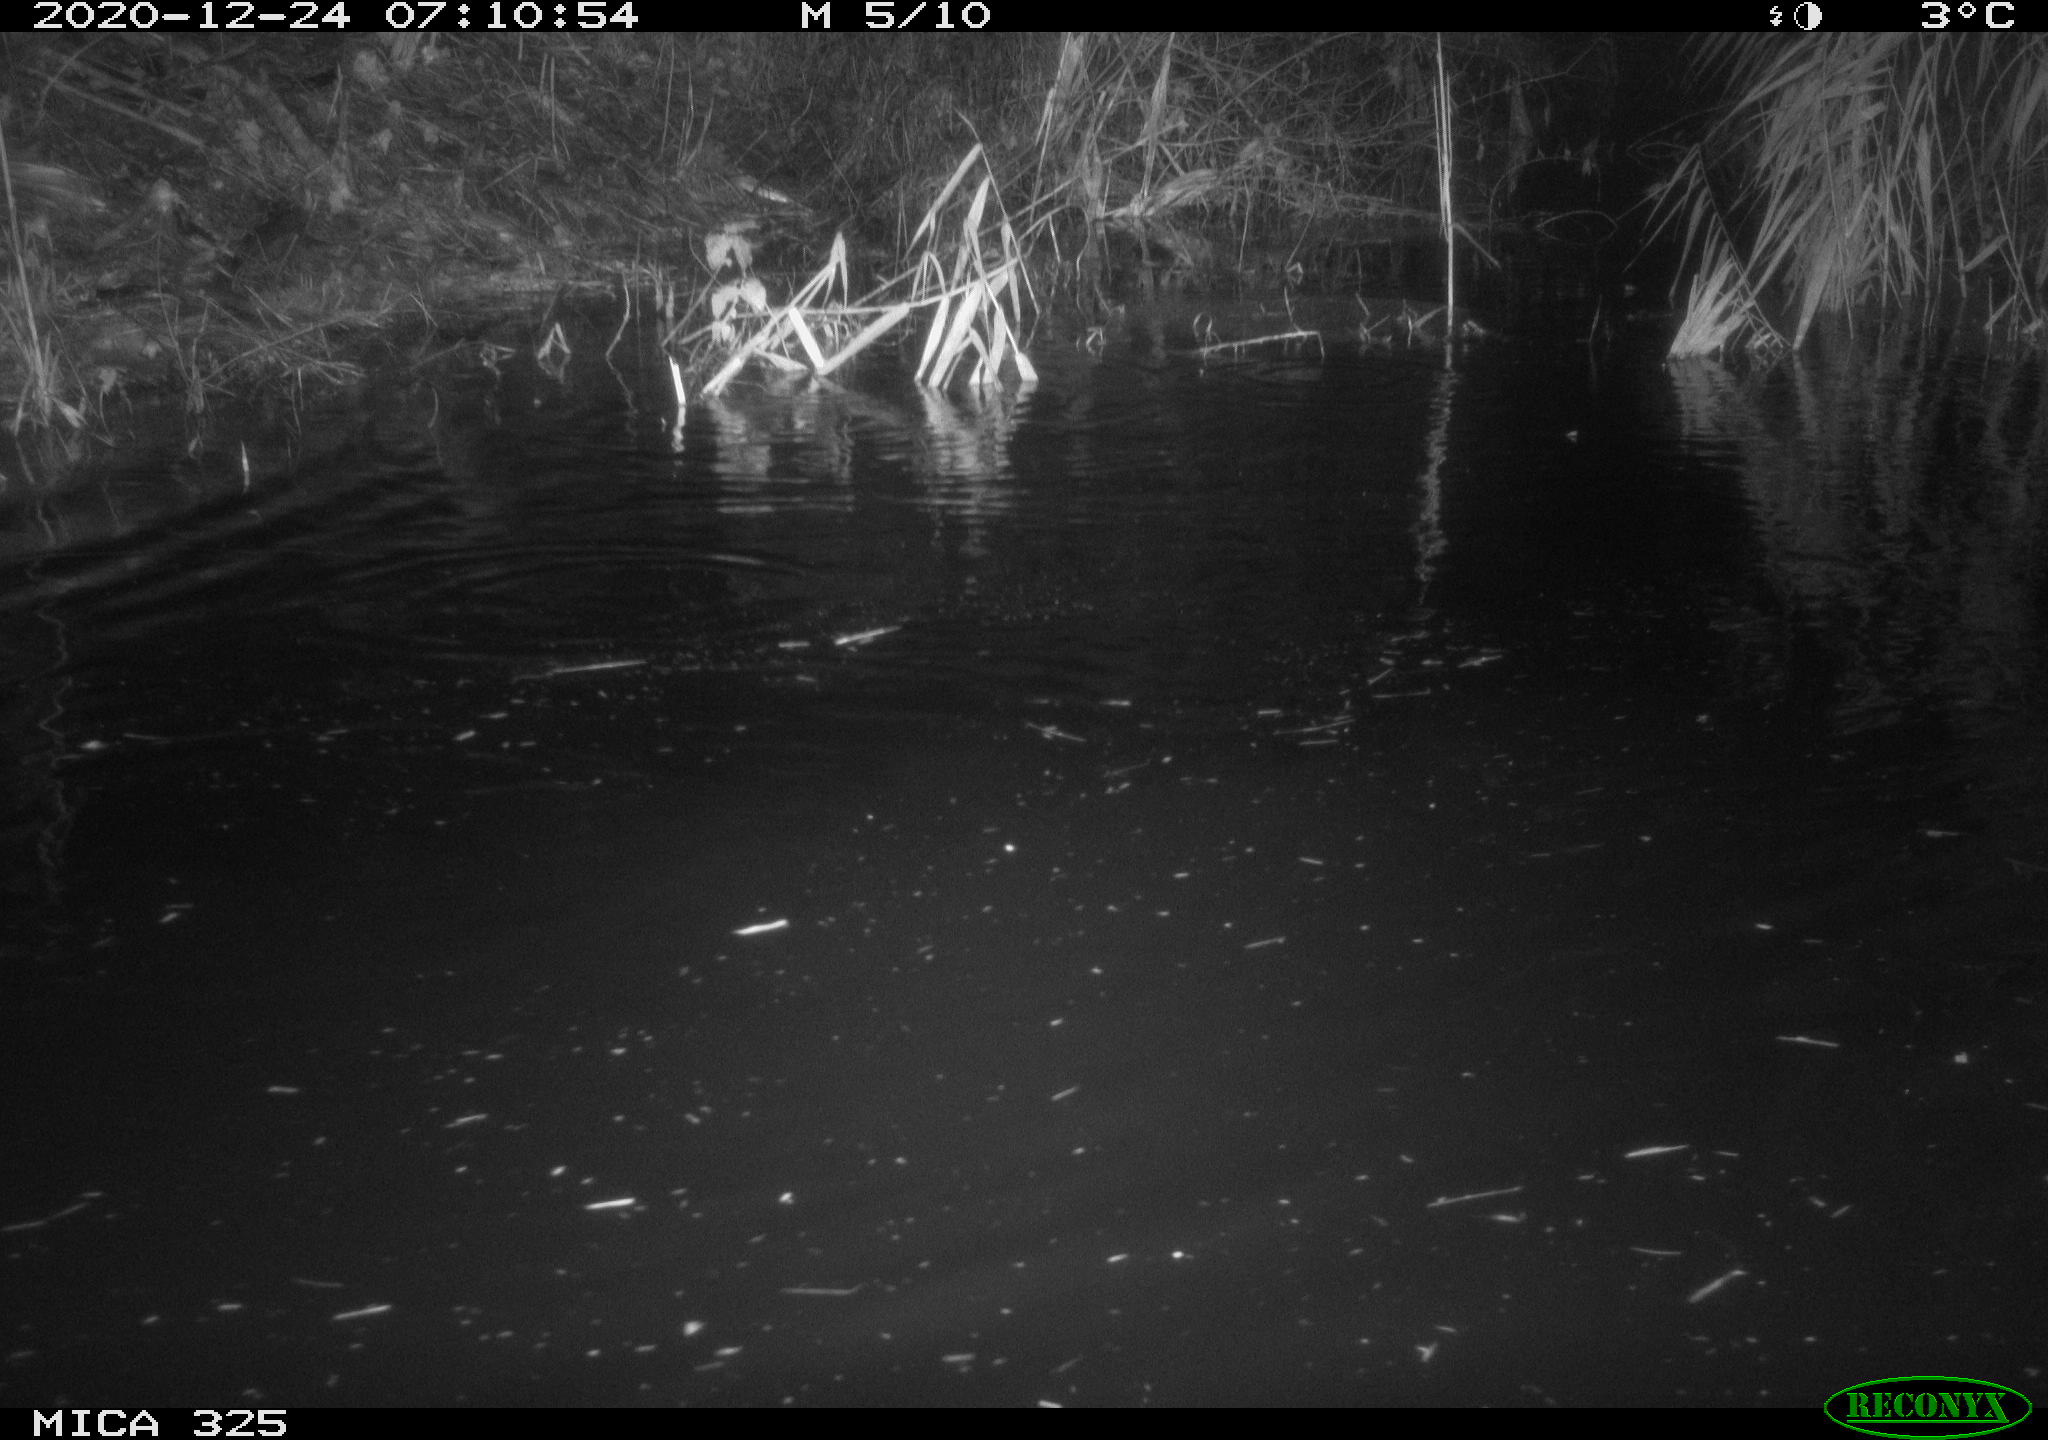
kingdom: Animalia
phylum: Chordata
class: Mammalia
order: Rodentia
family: Myocastoridae
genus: Myocastor
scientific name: Myocastor coypus
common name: Coypu
